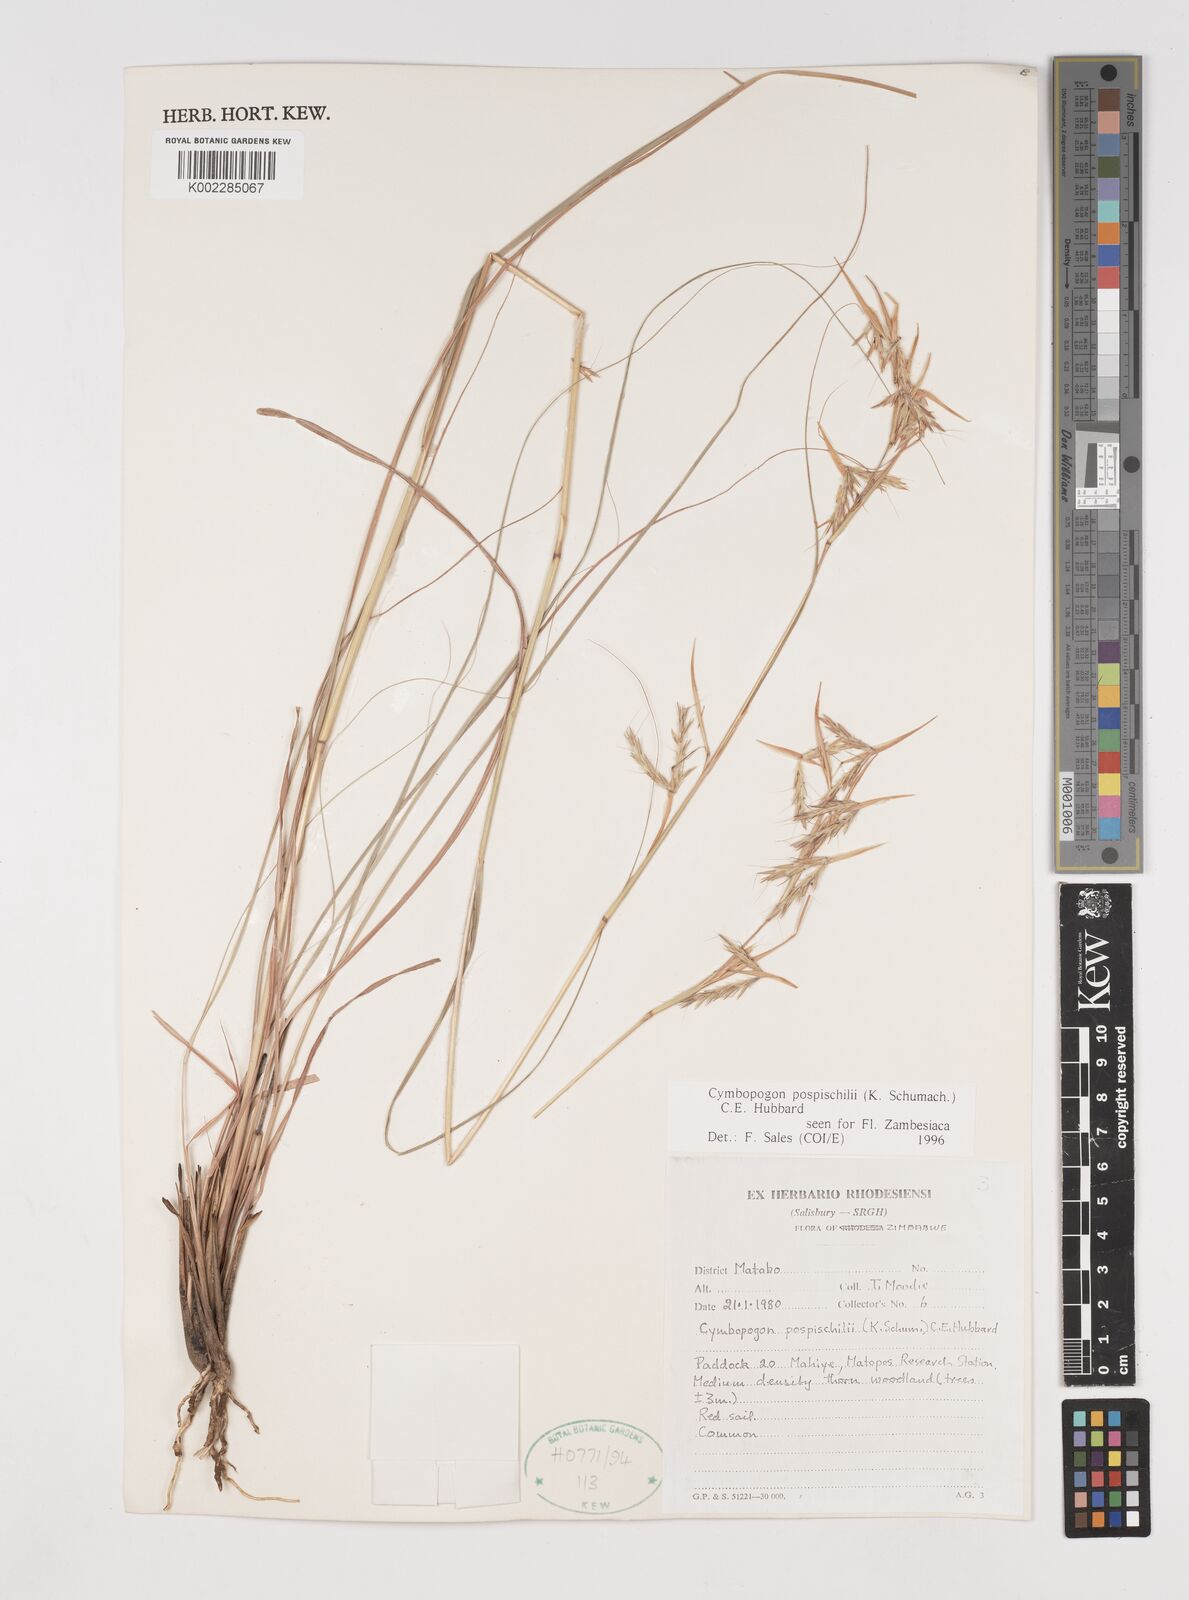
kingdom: Plantae
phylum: Tracheophyta
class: Liliopsida
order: Poales
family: Poaceae
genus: Cymbopogon
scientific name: Cymbopogon pospischilii
